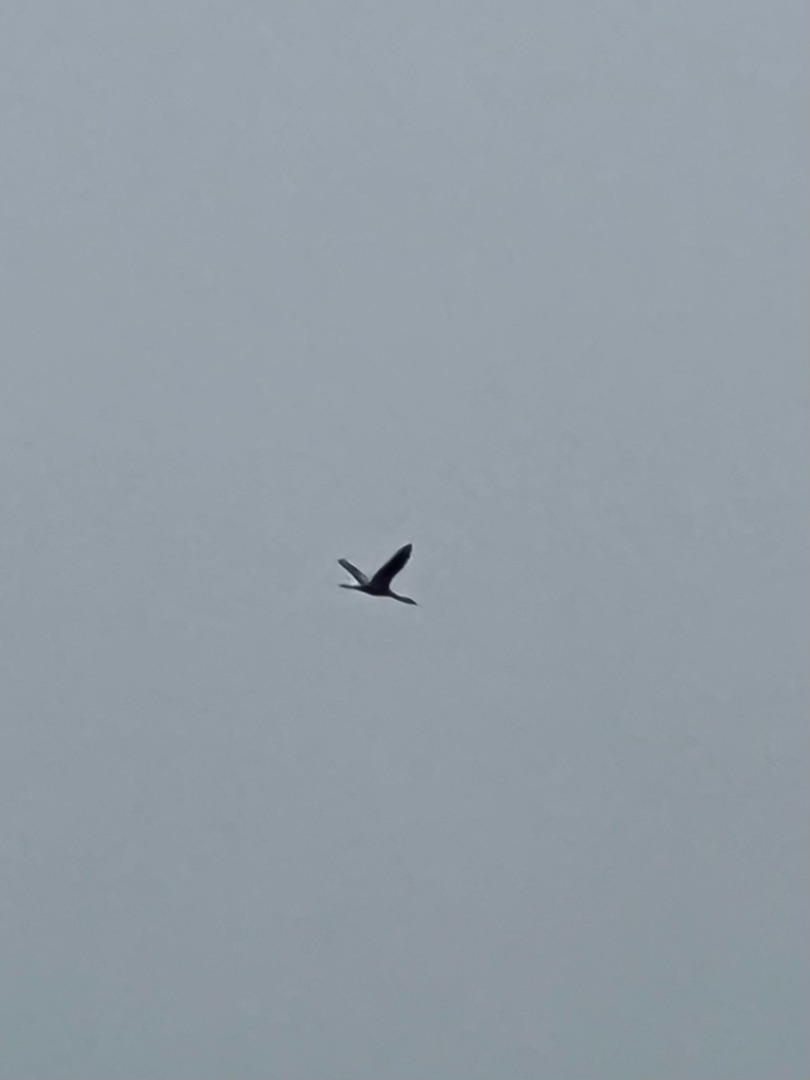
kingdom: Animalia
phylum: Chordata
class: Aves
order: Gruiformes
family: Gruidae
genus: Grus
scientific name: Grus grus
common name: Trane
